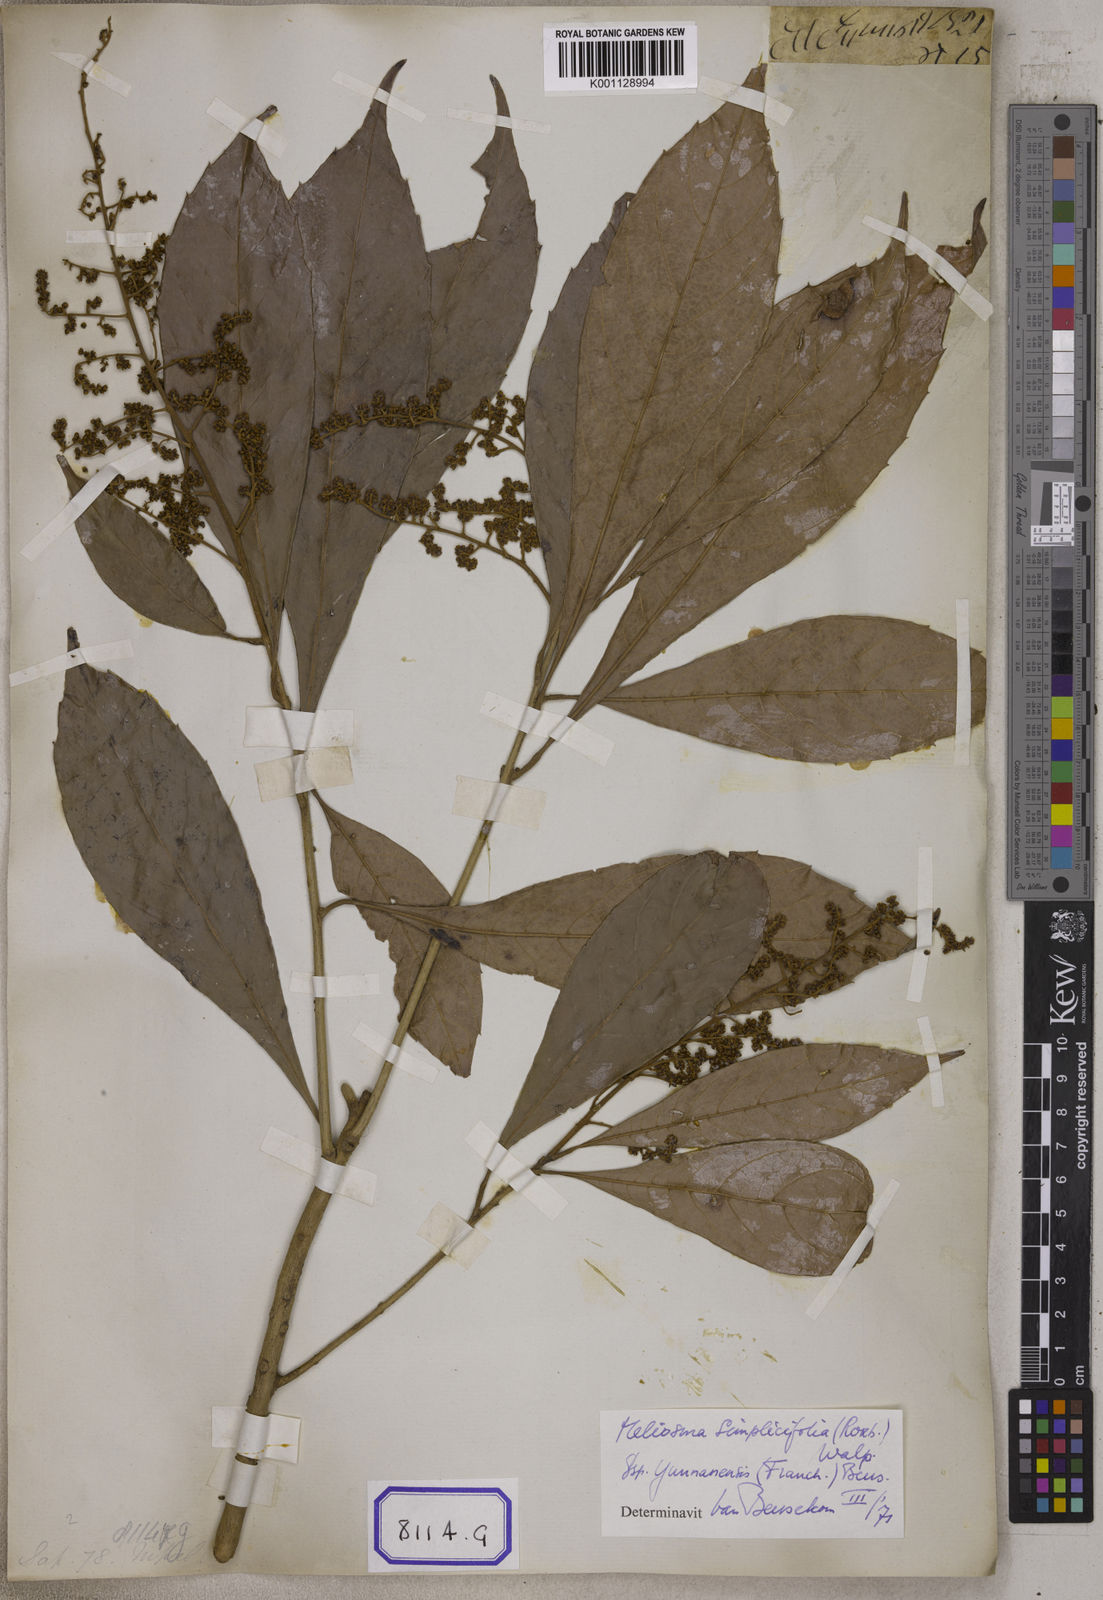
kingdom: Plantae
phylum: Tracheophyta
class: Magnoliopsida
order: Proteales
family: Sabiaceae
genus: Meliosma
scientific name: Meliosma simplicifolia
